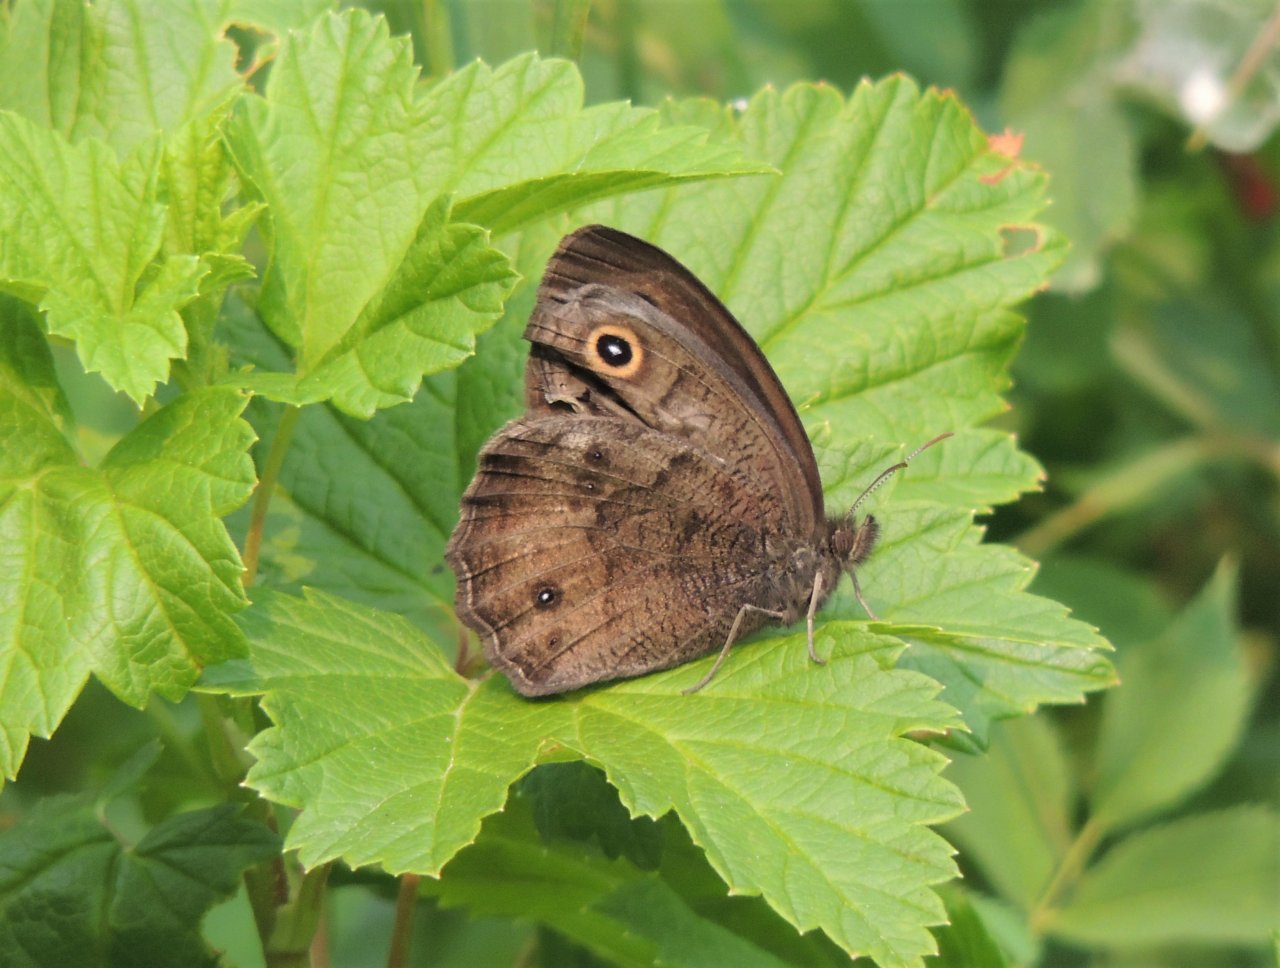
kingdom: Animalia
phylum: Arthropoda
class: Insecta
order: Lepidoptera
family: Nymphalidae
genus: Cercyonis
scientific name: Cercyonis pegala
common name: Common Wood-Nymph
